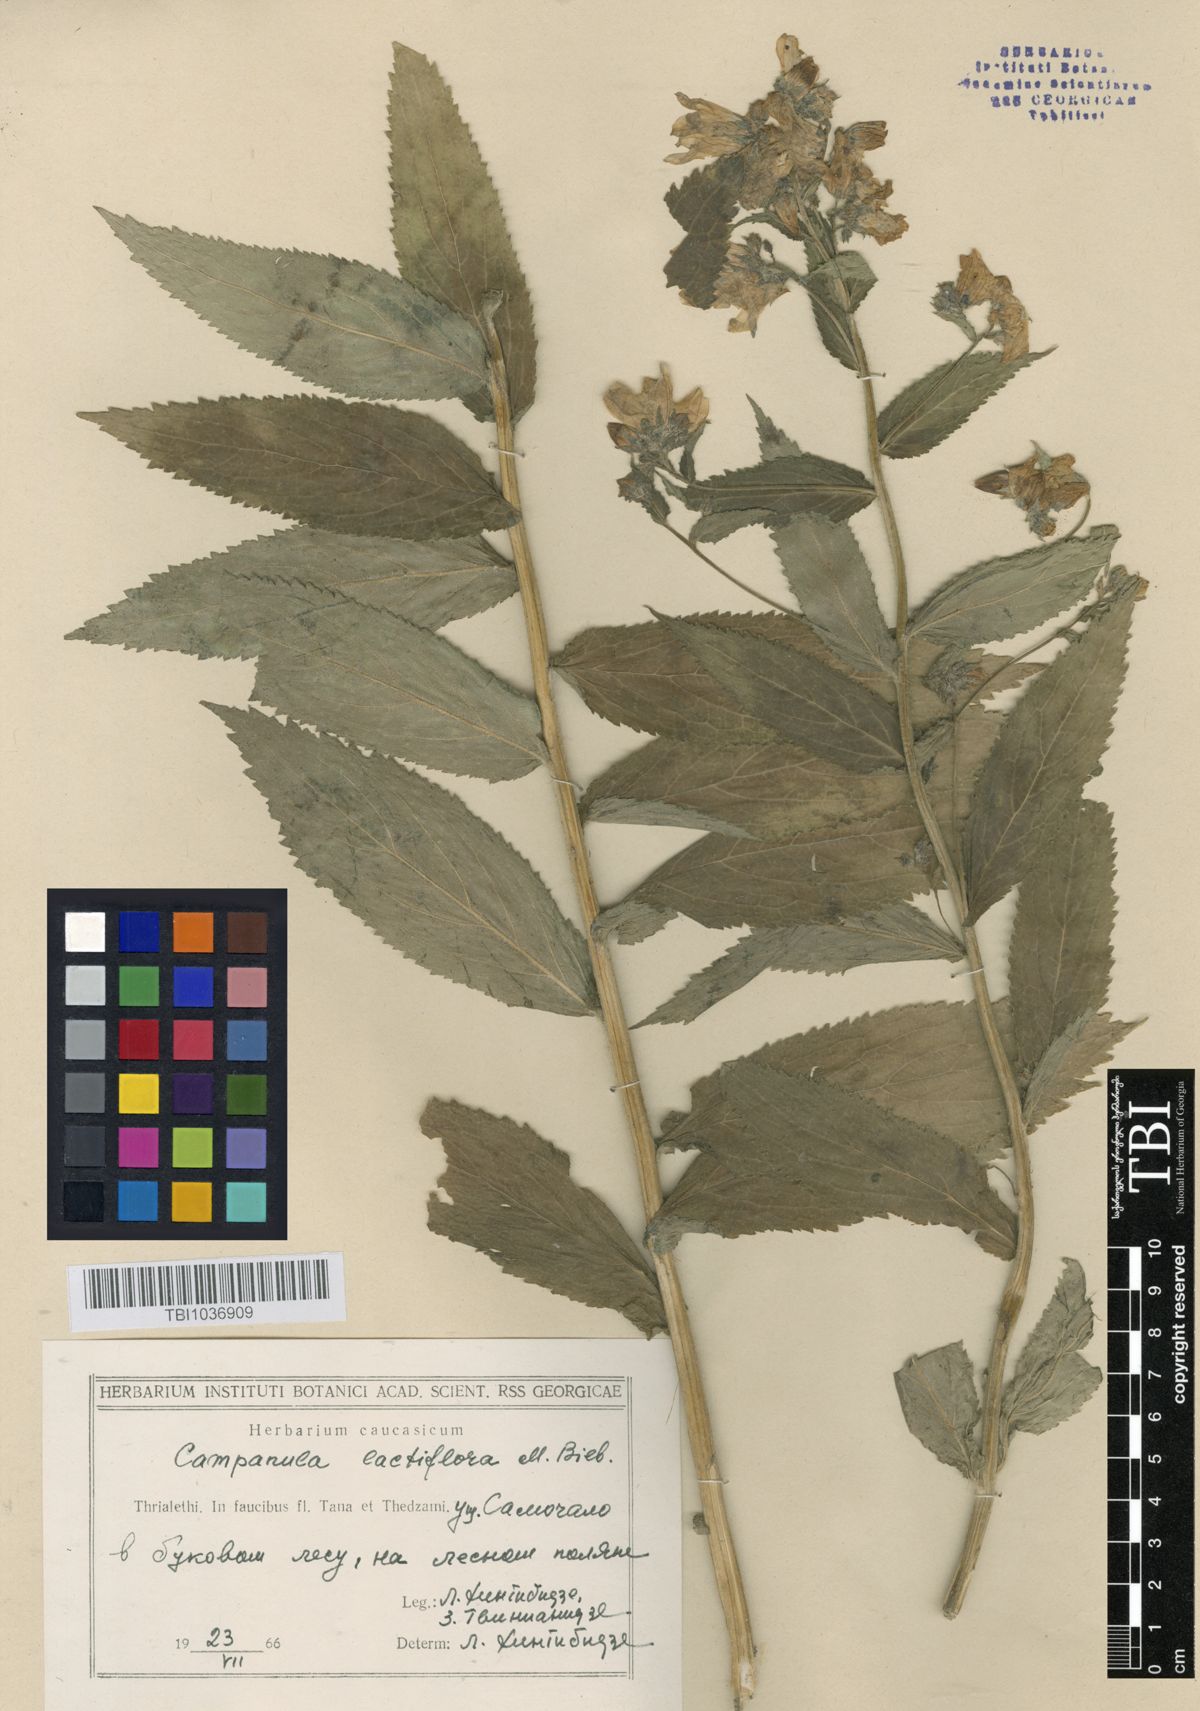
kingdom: Plantae
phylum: Tracheophyta
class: Magnoliopsida
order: Asterales
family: Campanulaceae
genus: Campanula
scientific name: Campanula lactiflora
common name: Milky bellflower
